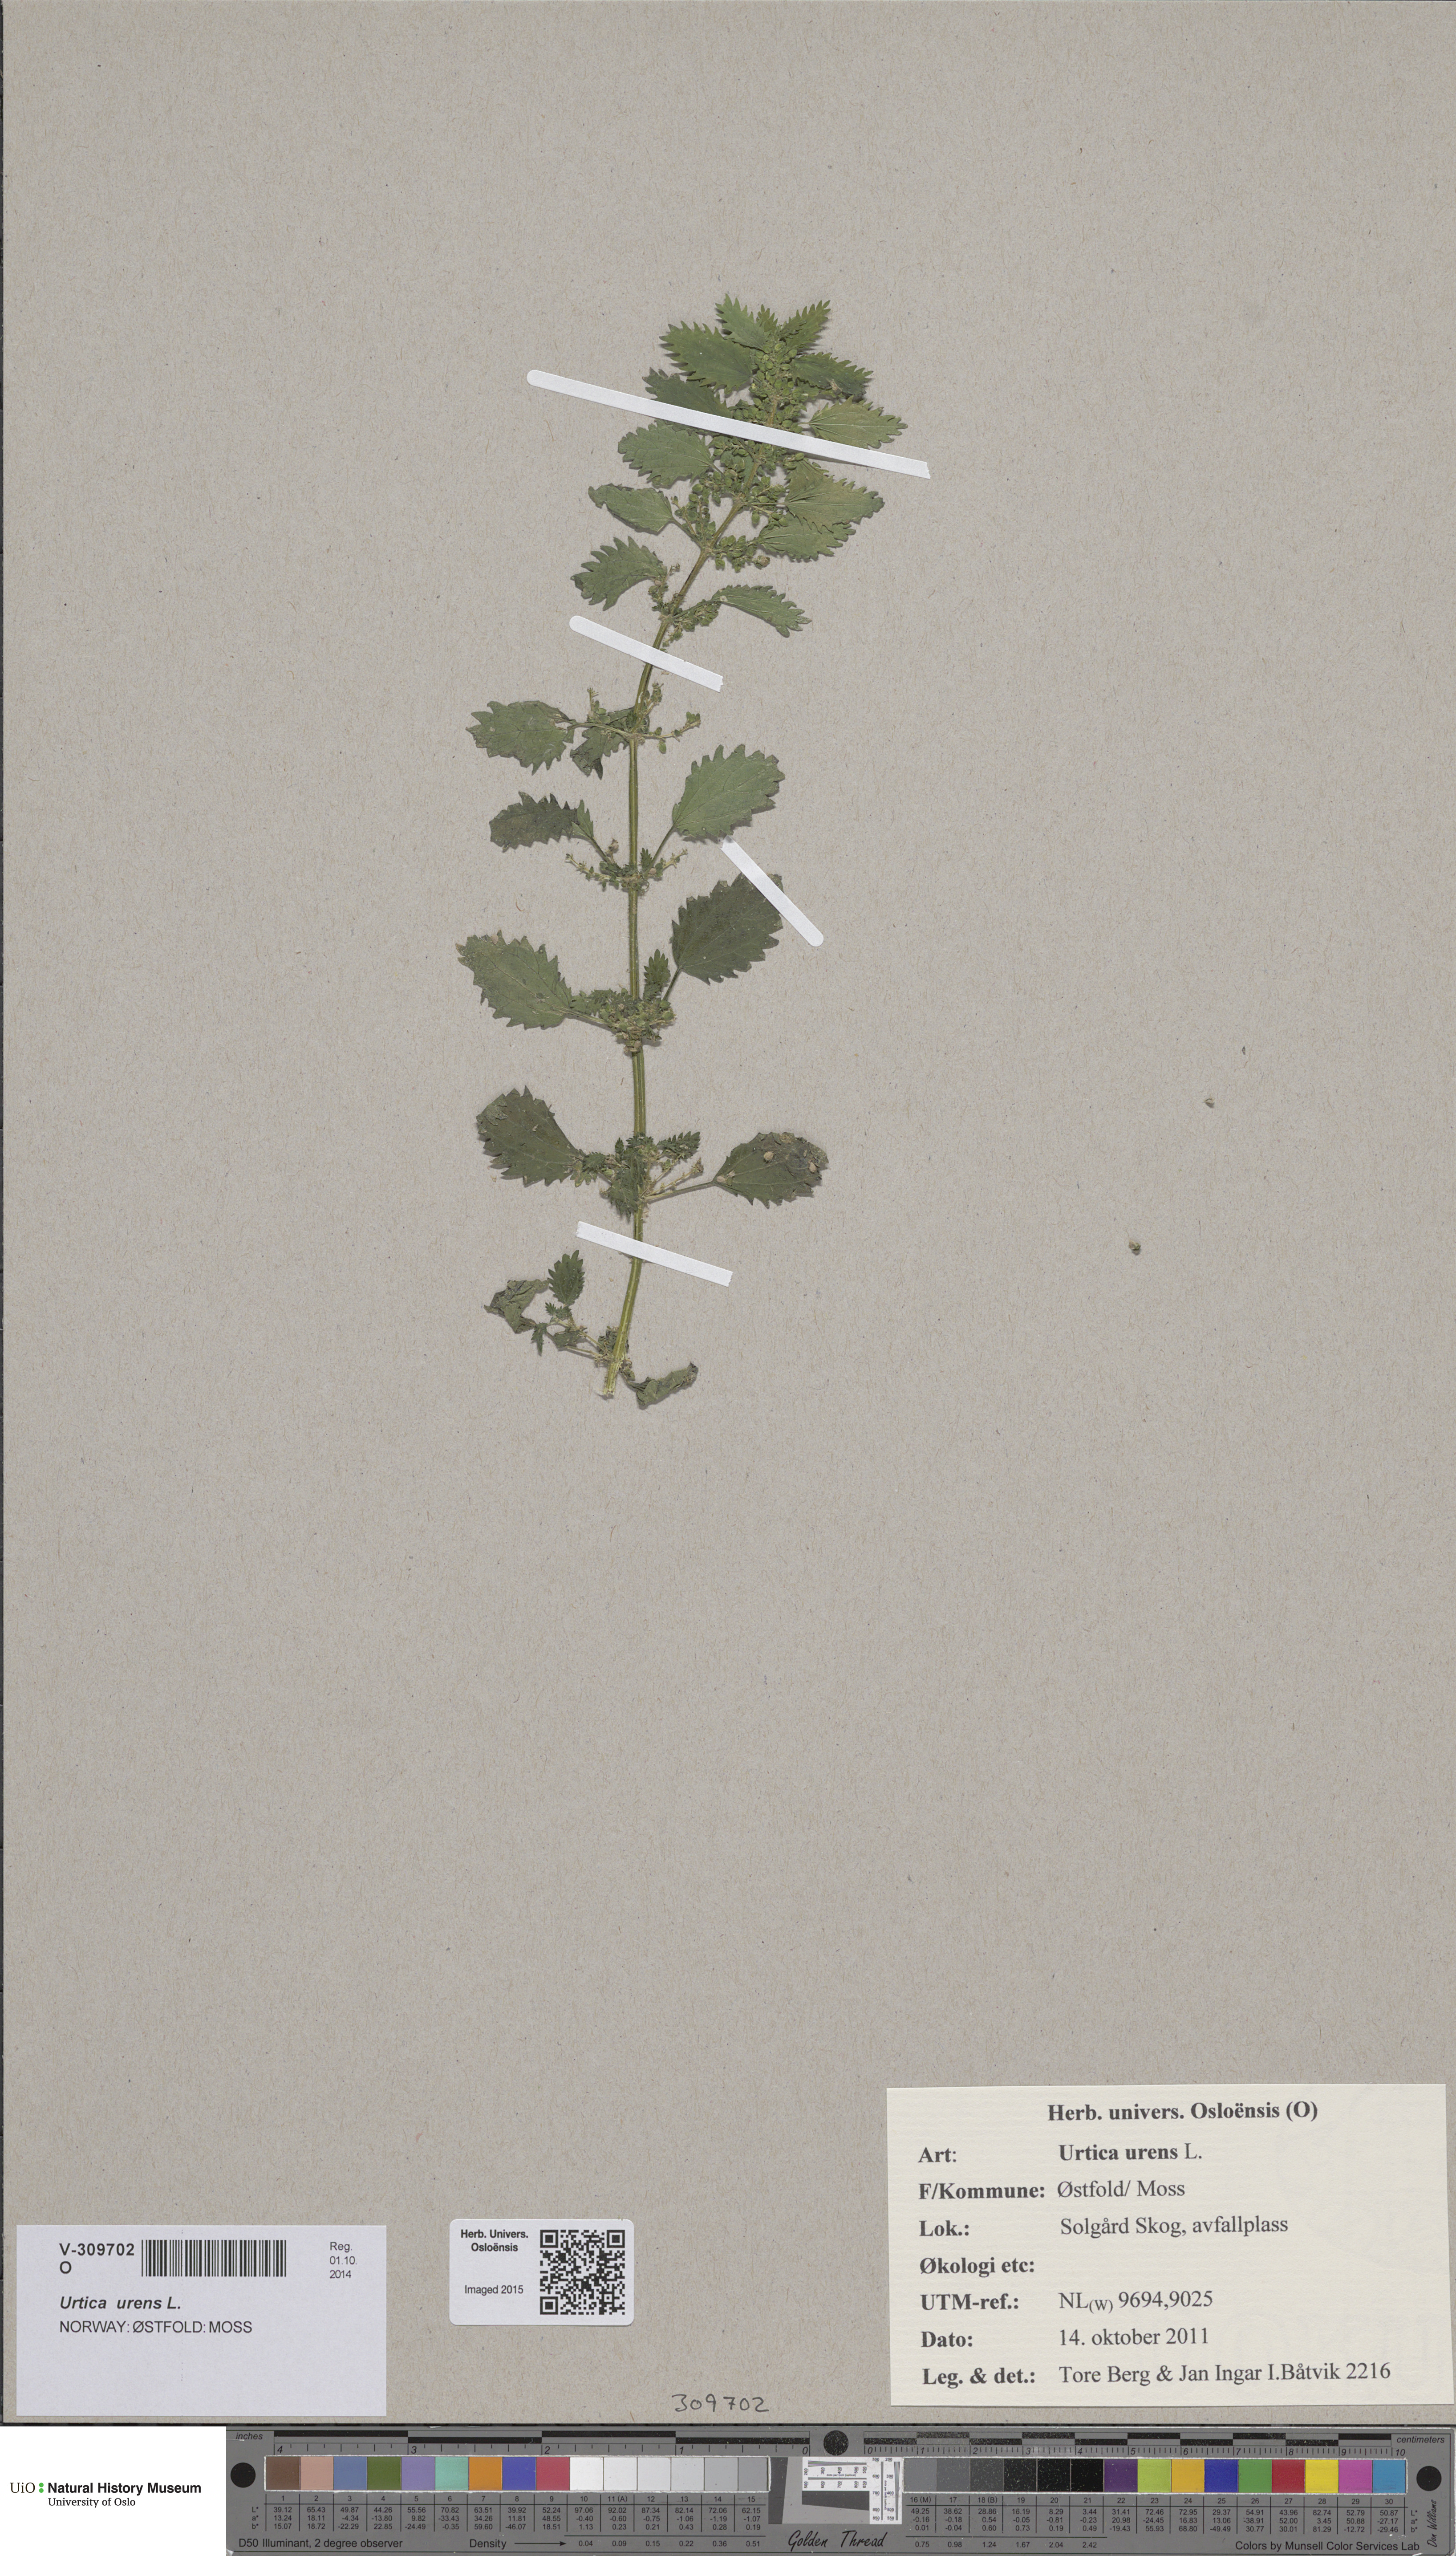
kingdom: Plantae
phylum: Tracheophyta
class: Magnoliopsida
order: Rosales
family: Urticaceae
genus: Urtica
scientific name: Urtica urens
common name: Dwarf nettle
